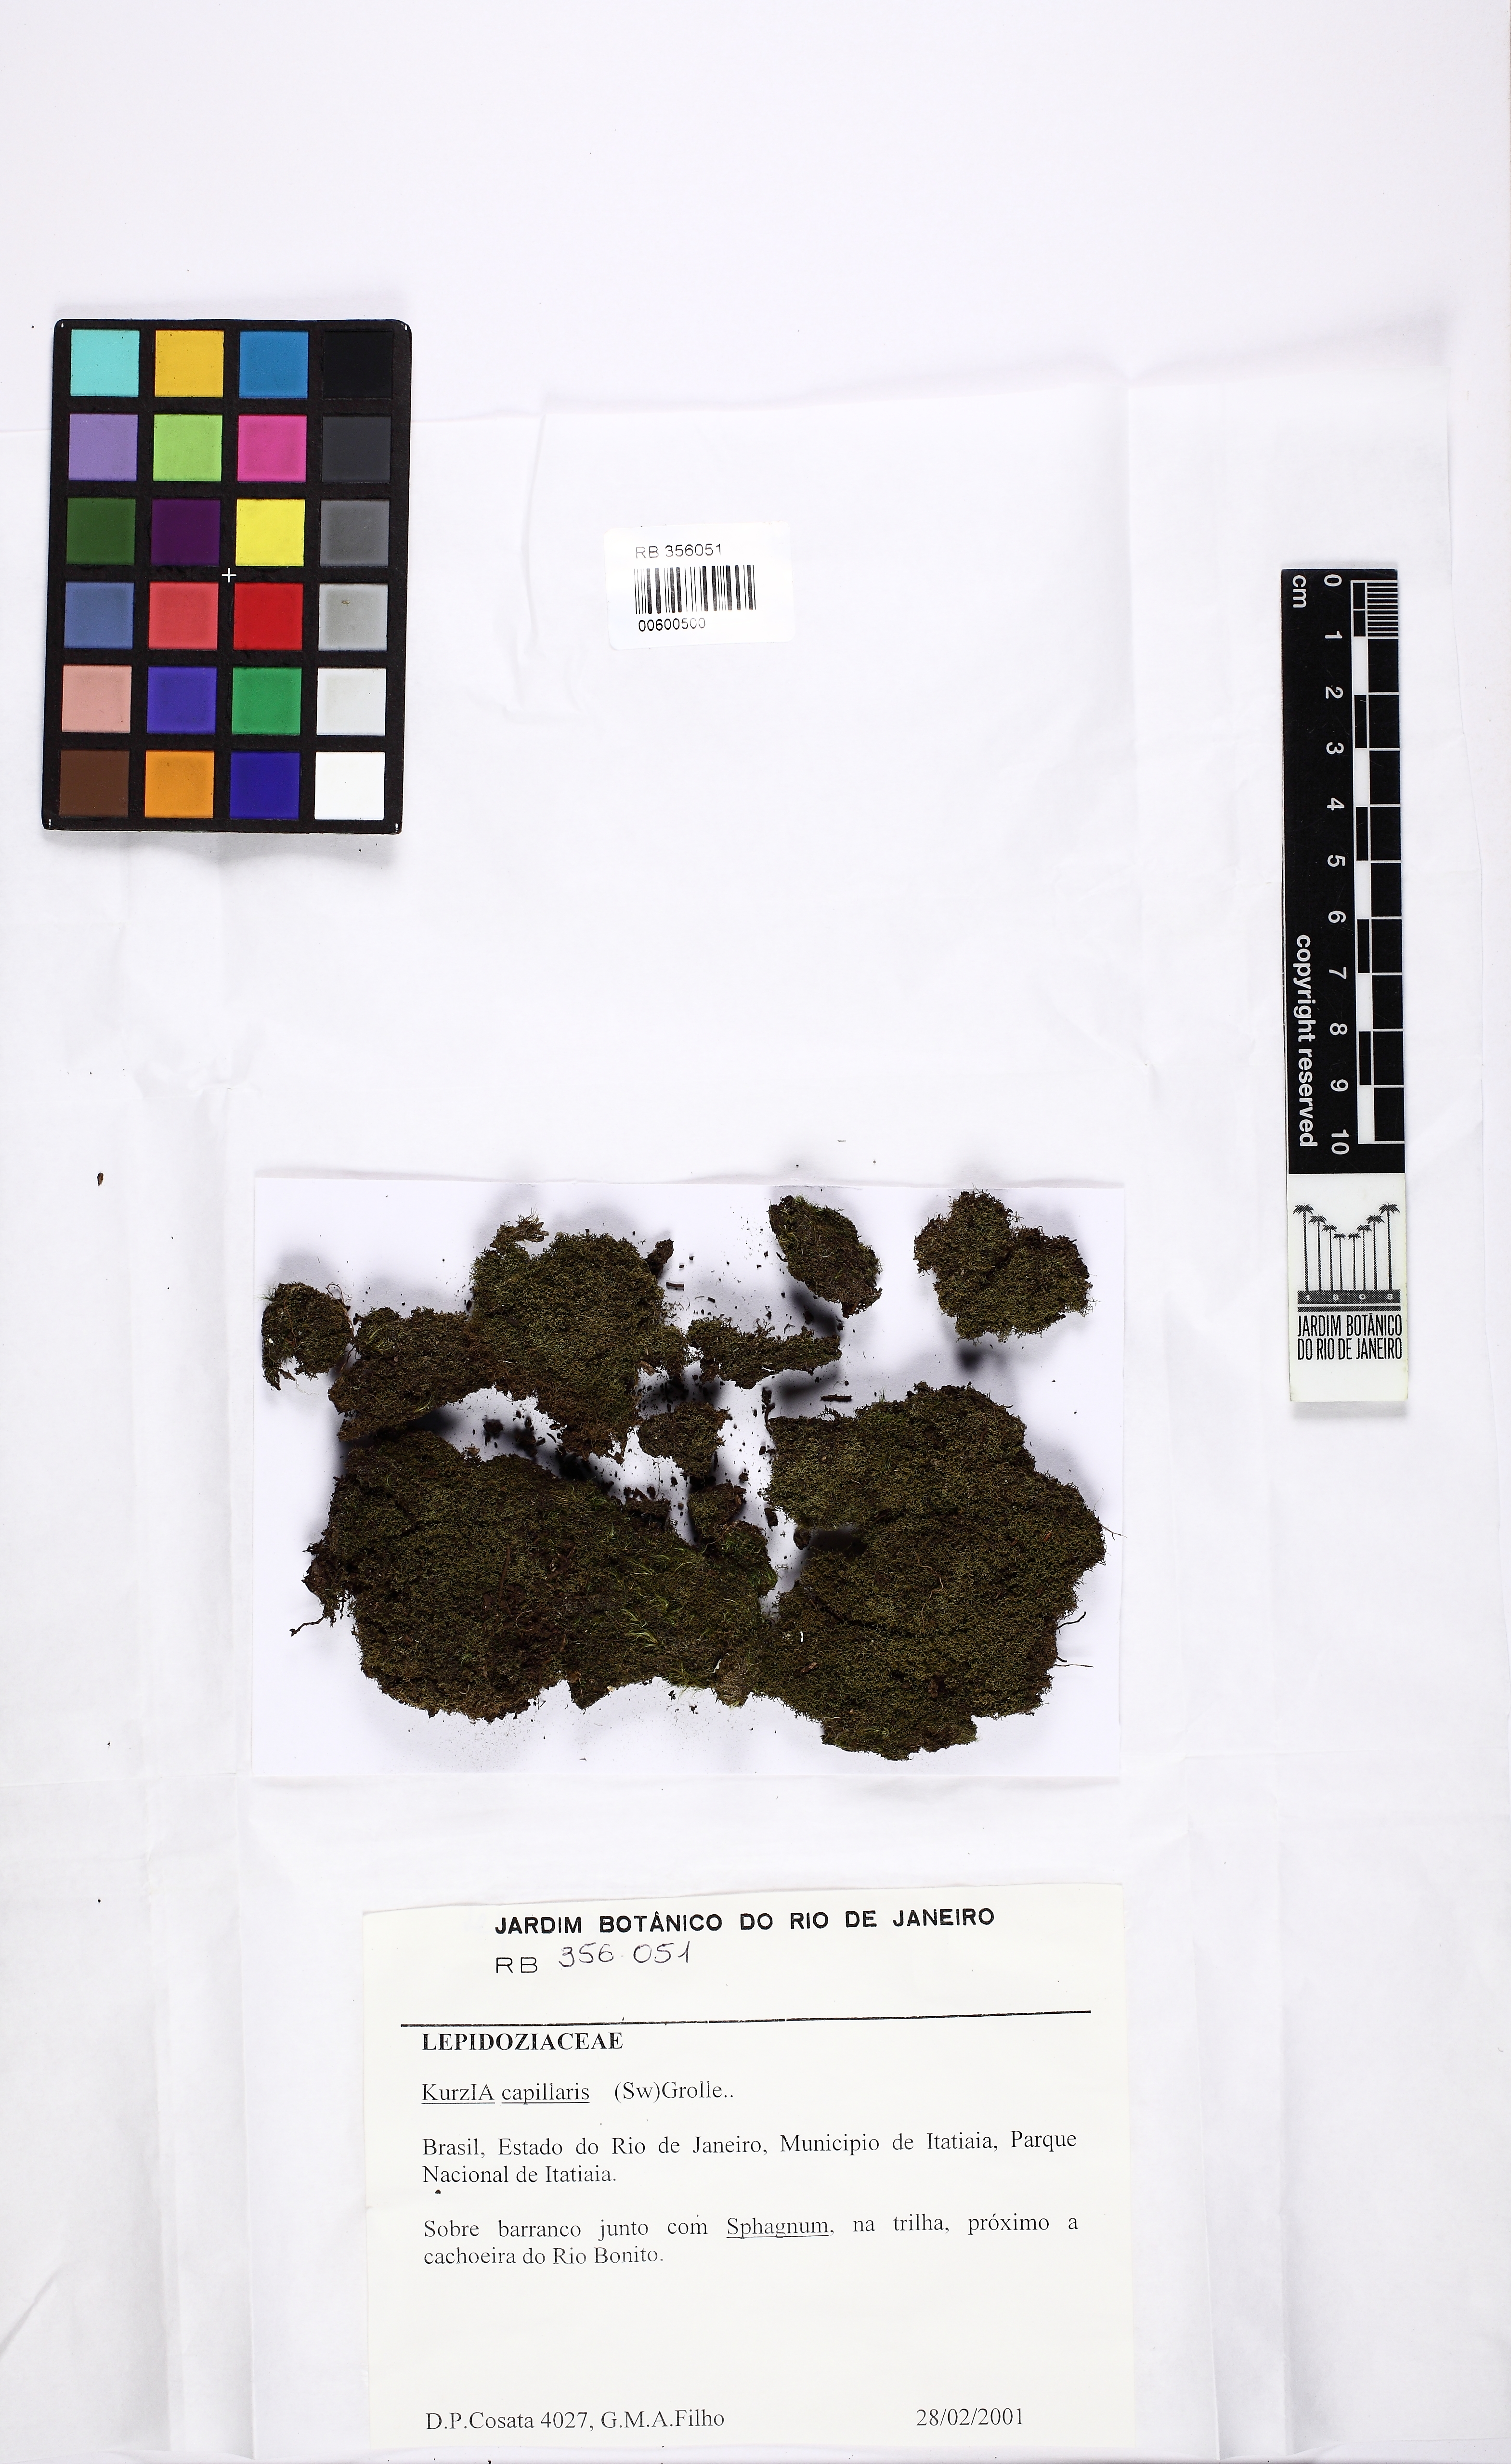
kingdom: Plantae
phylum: Marchantiophyta
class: Jungermanniopsida
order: Jungermanniales
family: Lepidoziaceae
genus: Kurzia
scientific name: Kurzia capillaris
